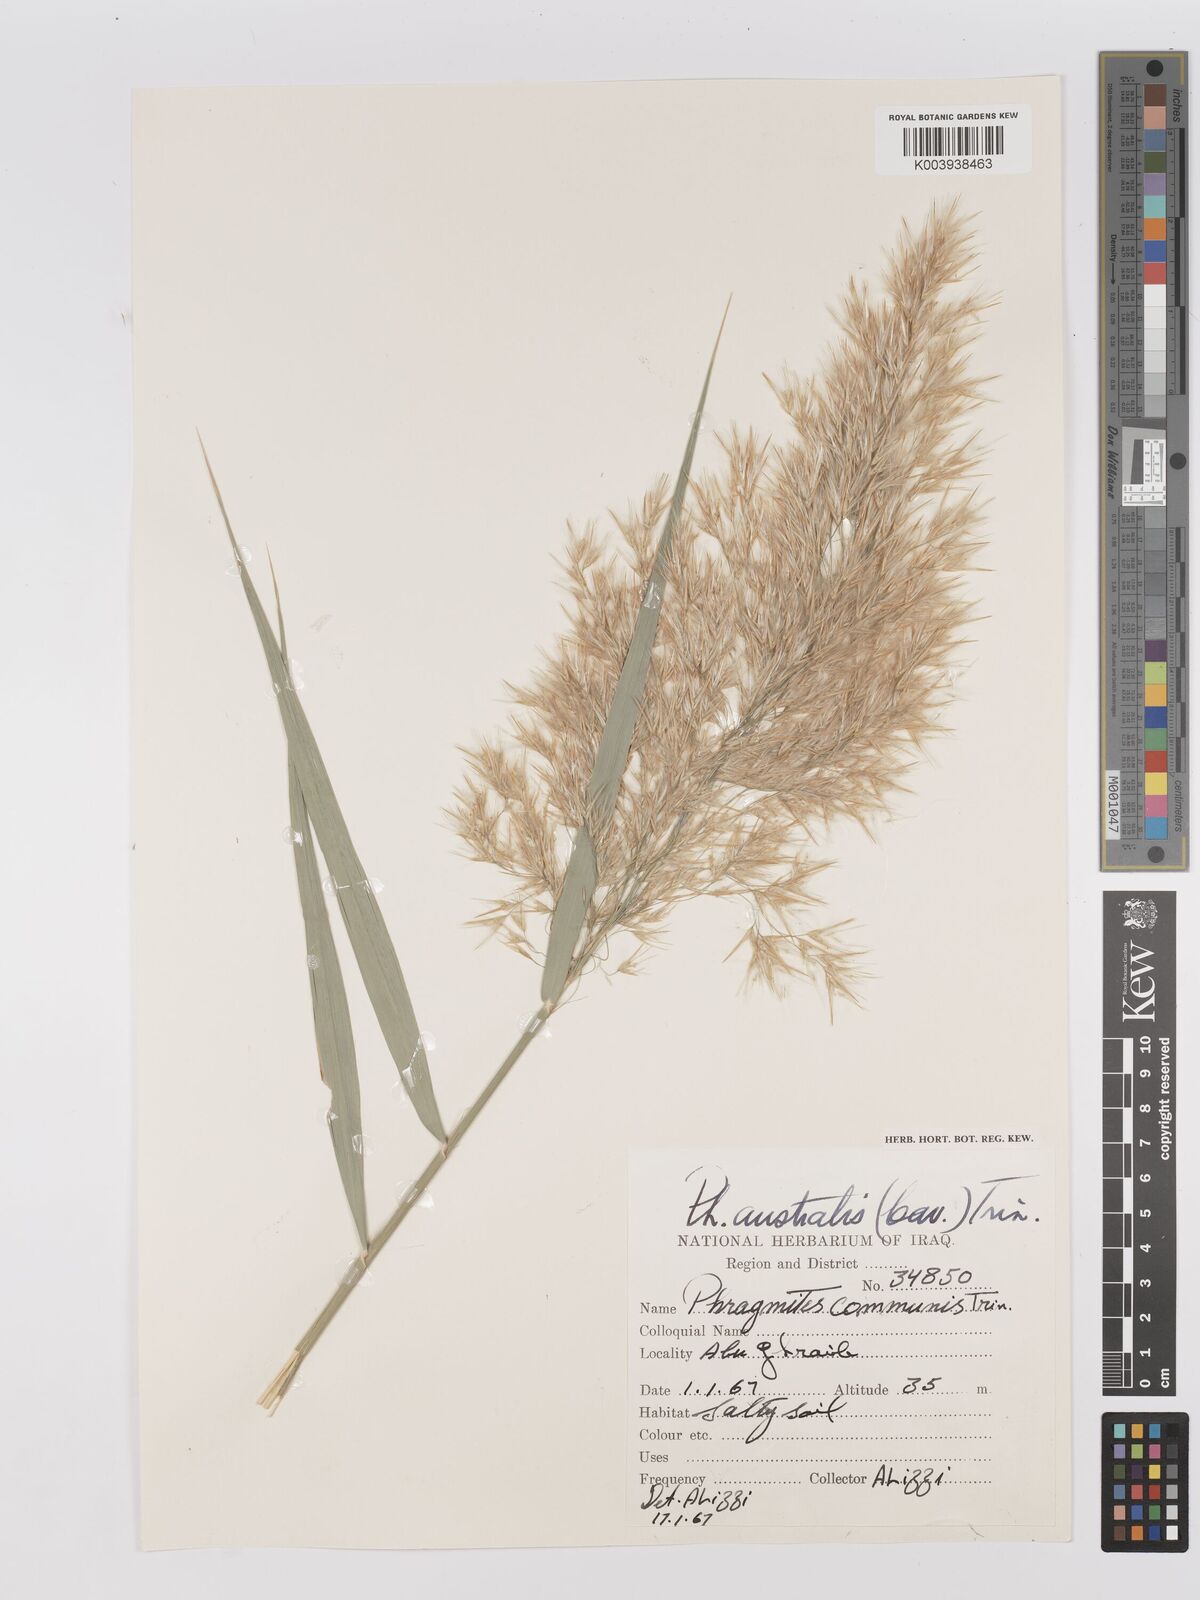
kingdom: Plantae
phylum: Tracheophyta
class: Liliopsida
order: Poales
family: Poaceae
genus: Phragmites
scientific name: Phragmites australis
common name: Common reed
